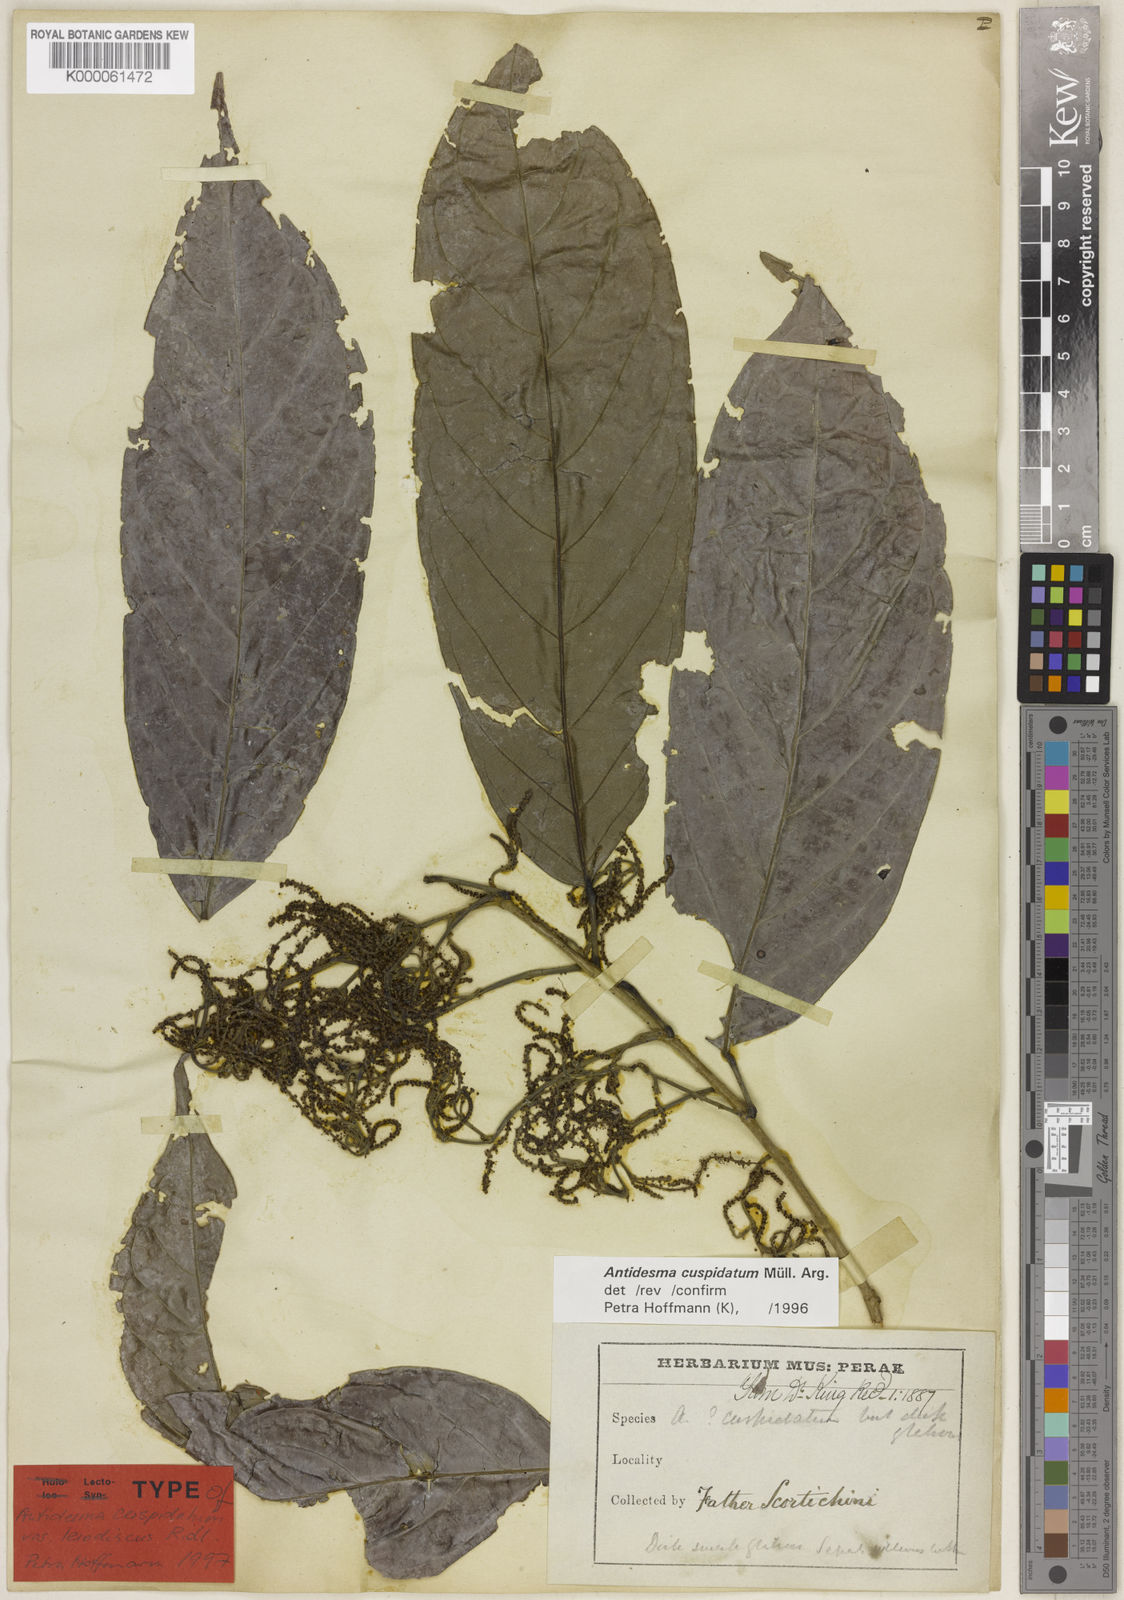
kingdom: Plantae
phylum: Tracheophyta
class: Magnoliopsida
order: Malpighiales
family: Phyllanthaceae
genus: Antidesma
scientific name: Antidesma
